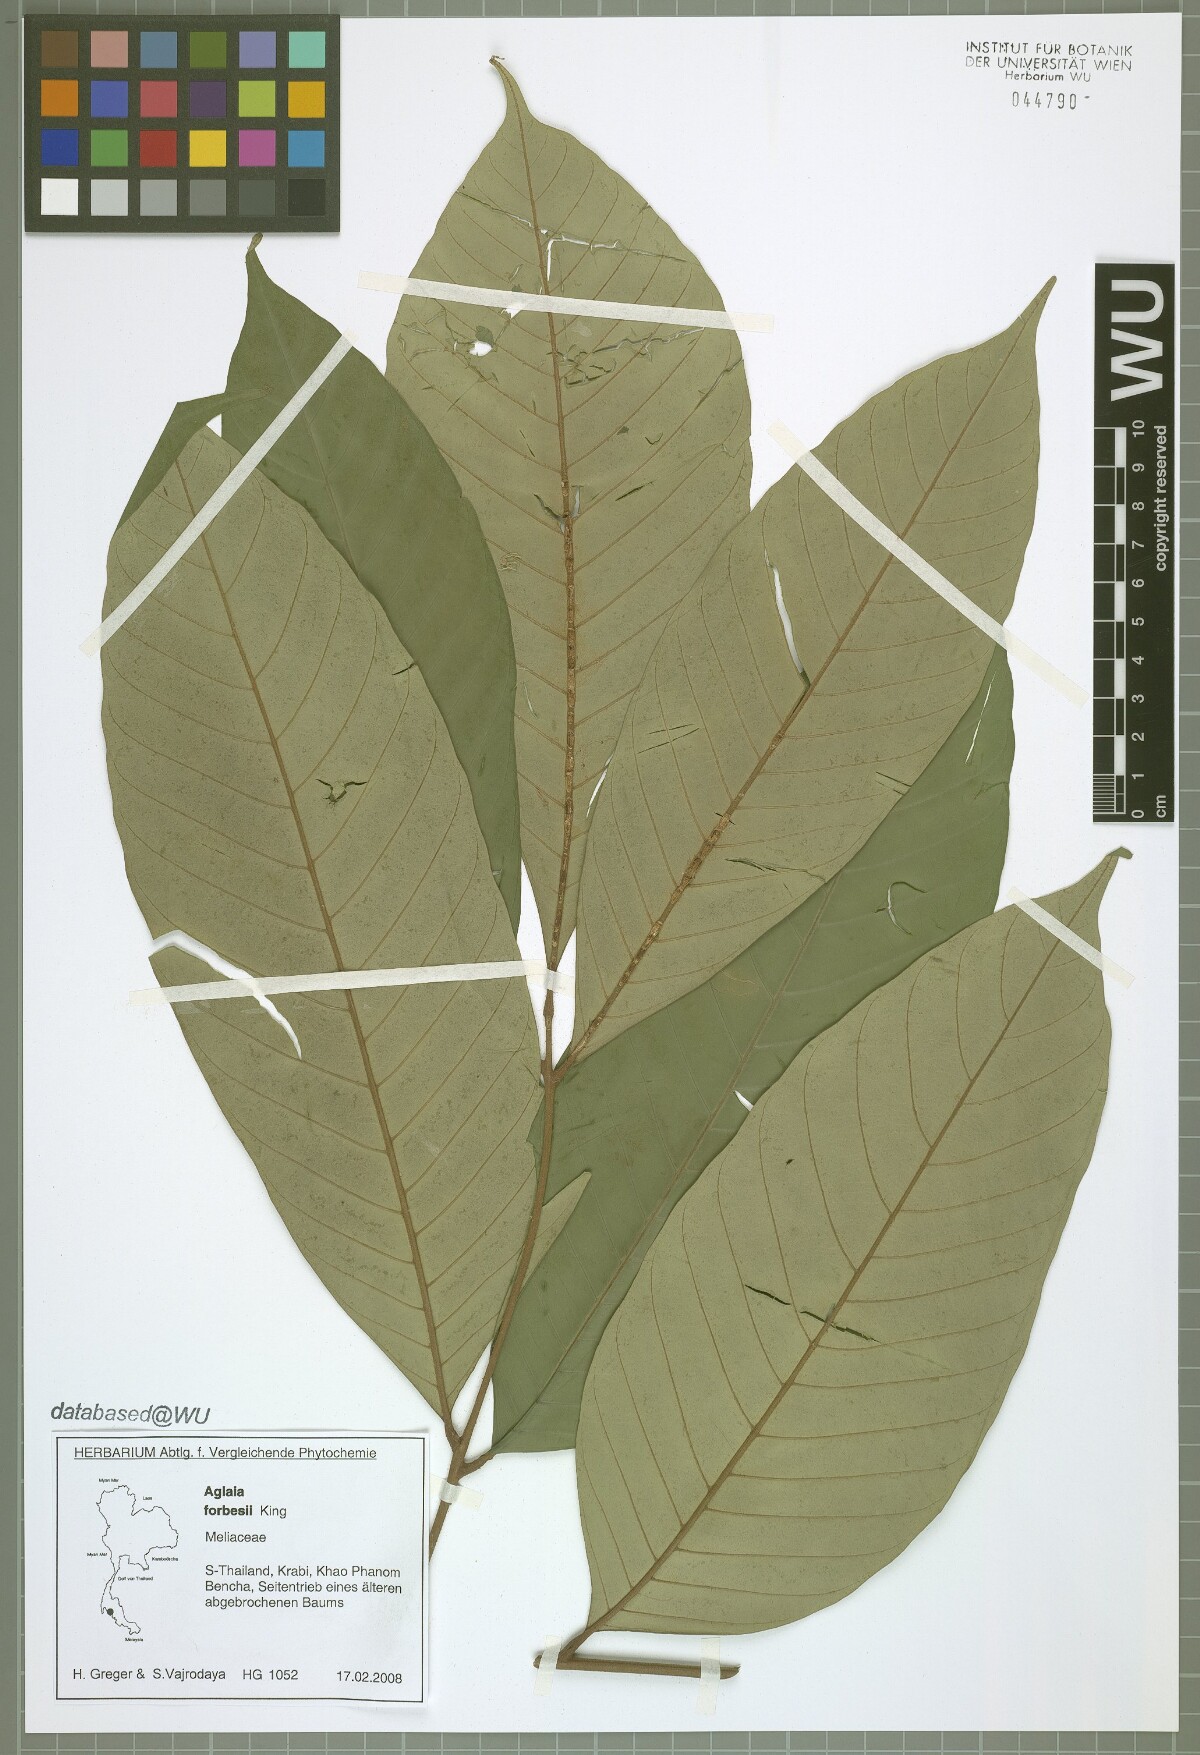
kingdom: Plantae
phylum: Tracheophyta
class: Magnoliopsida
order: Sapindales
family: Meliaceae
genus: Aglaia
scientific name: Aglaia forbesii
